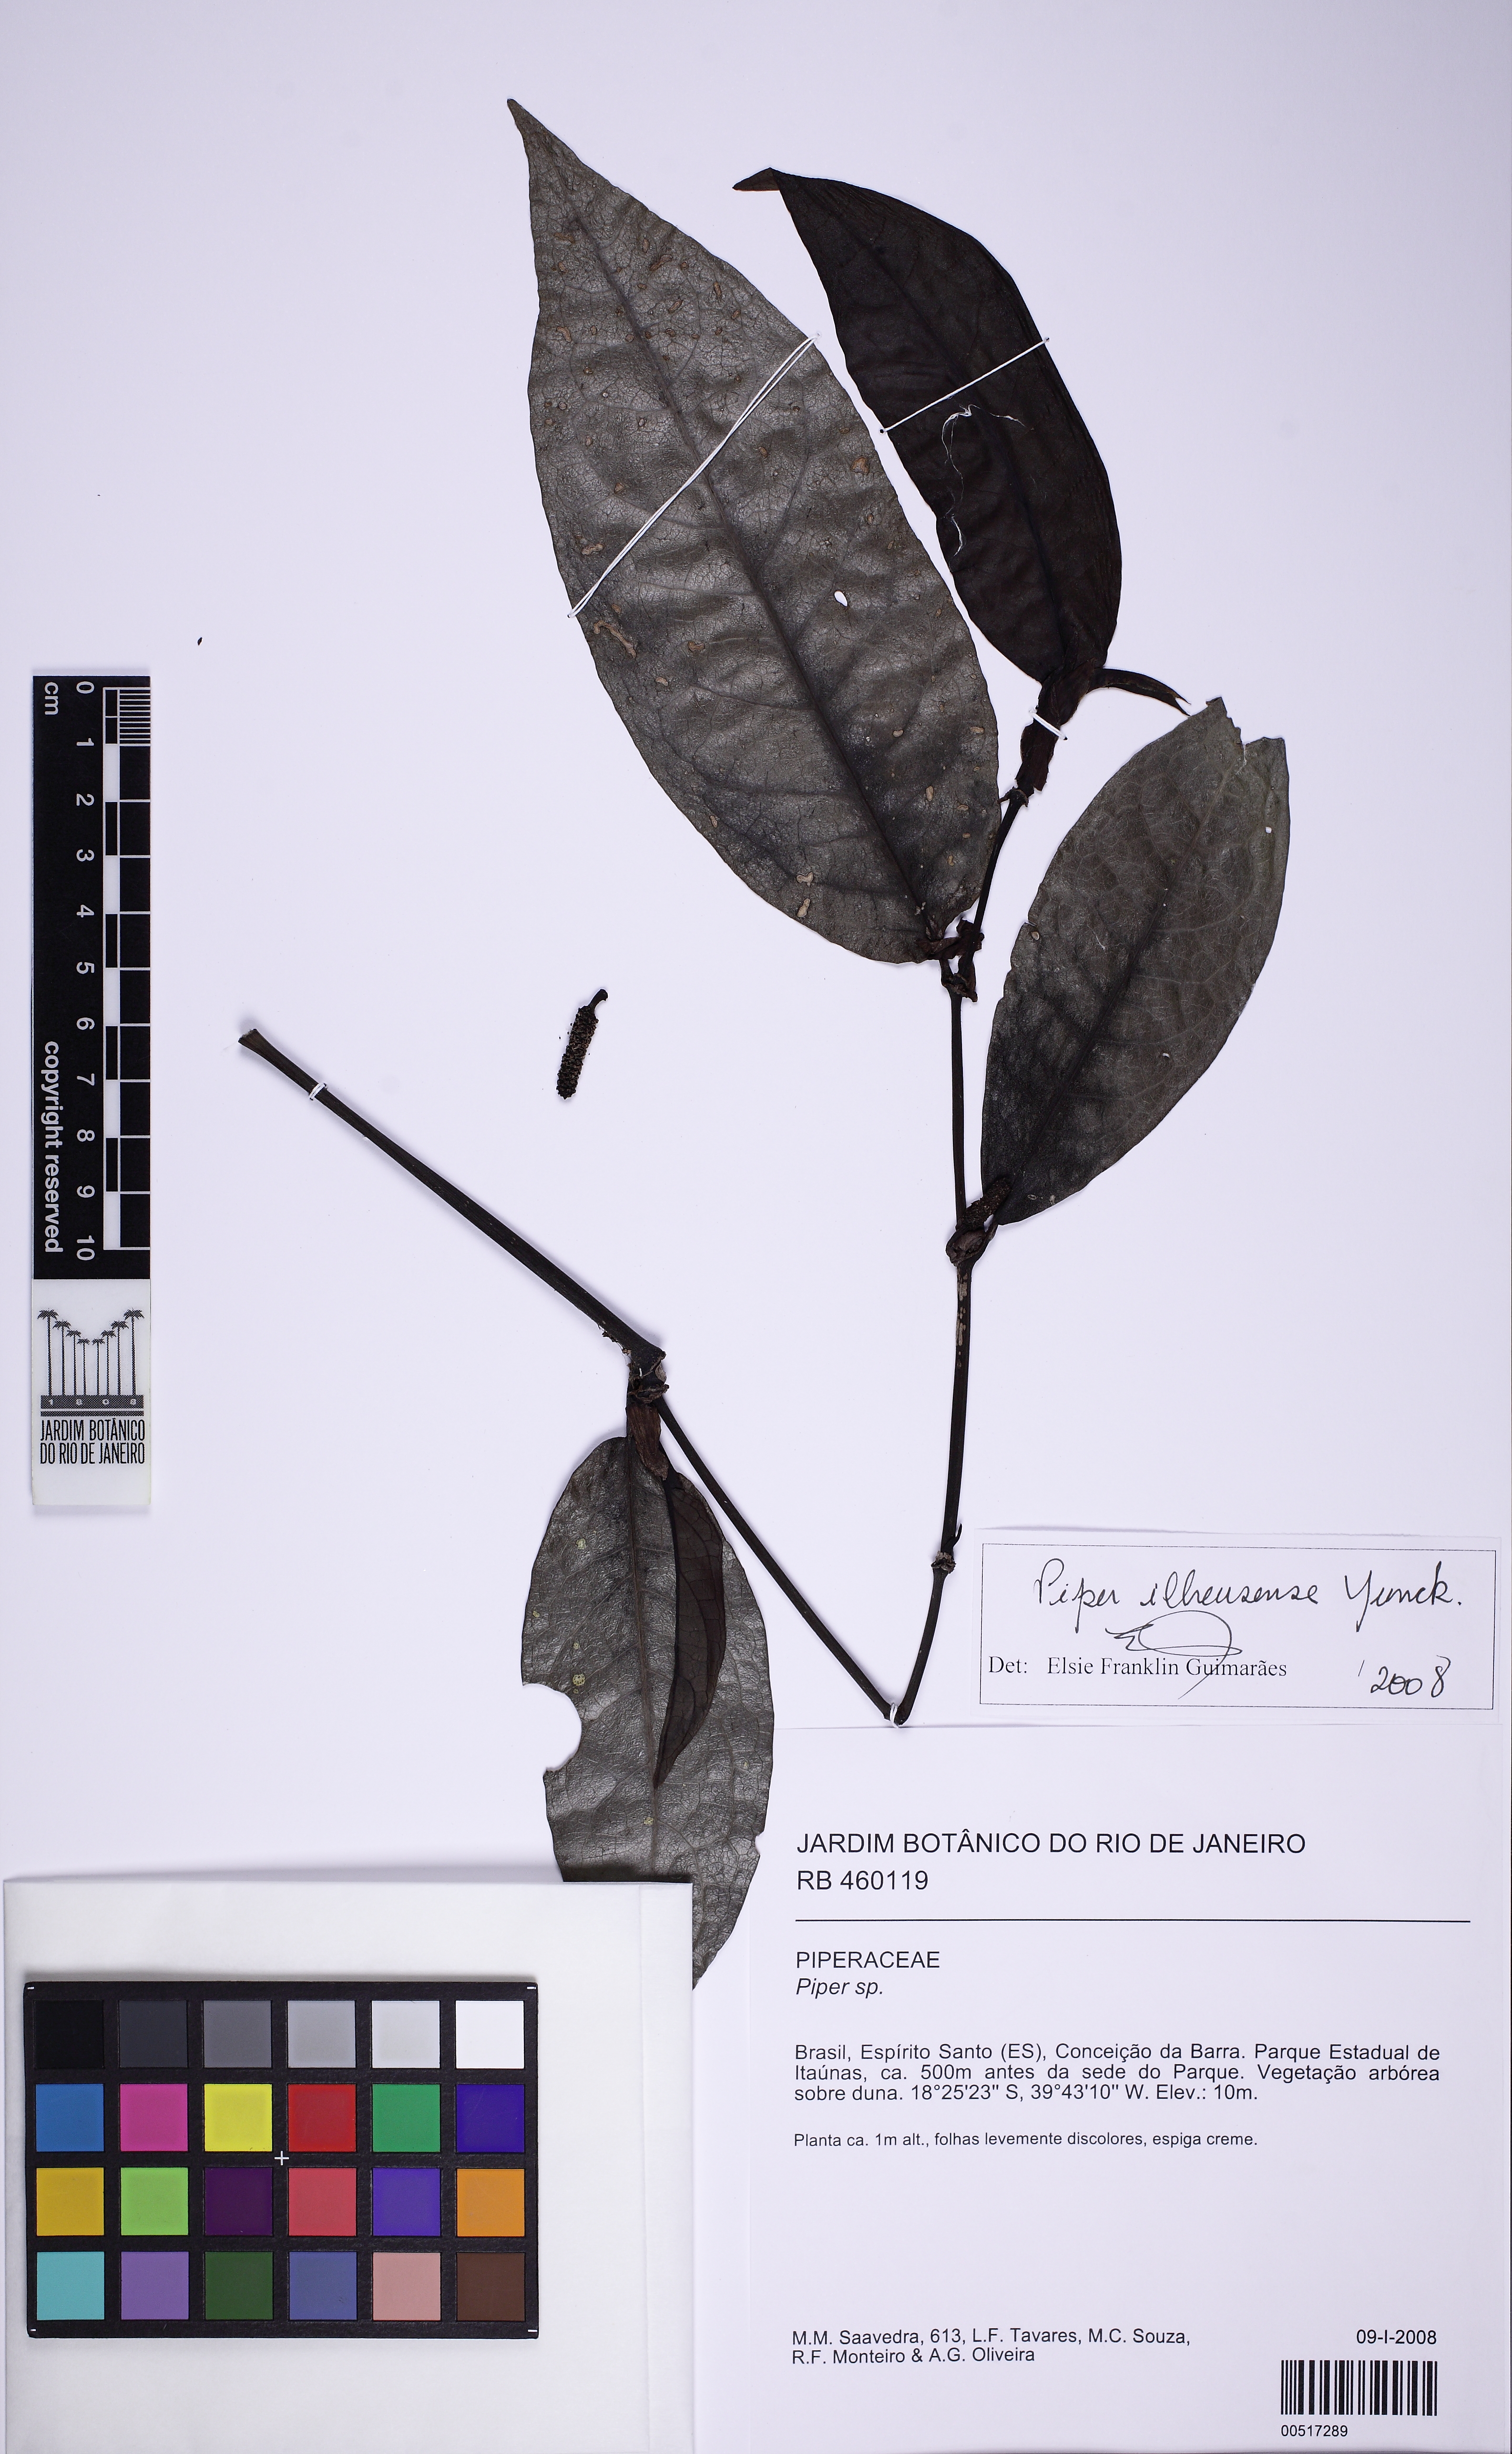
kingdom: Plantae
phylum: Tracheophyta
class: Magnoliopsida
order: Piperales
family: Piperaceae
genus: Piper
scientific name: Piper ilheusense
